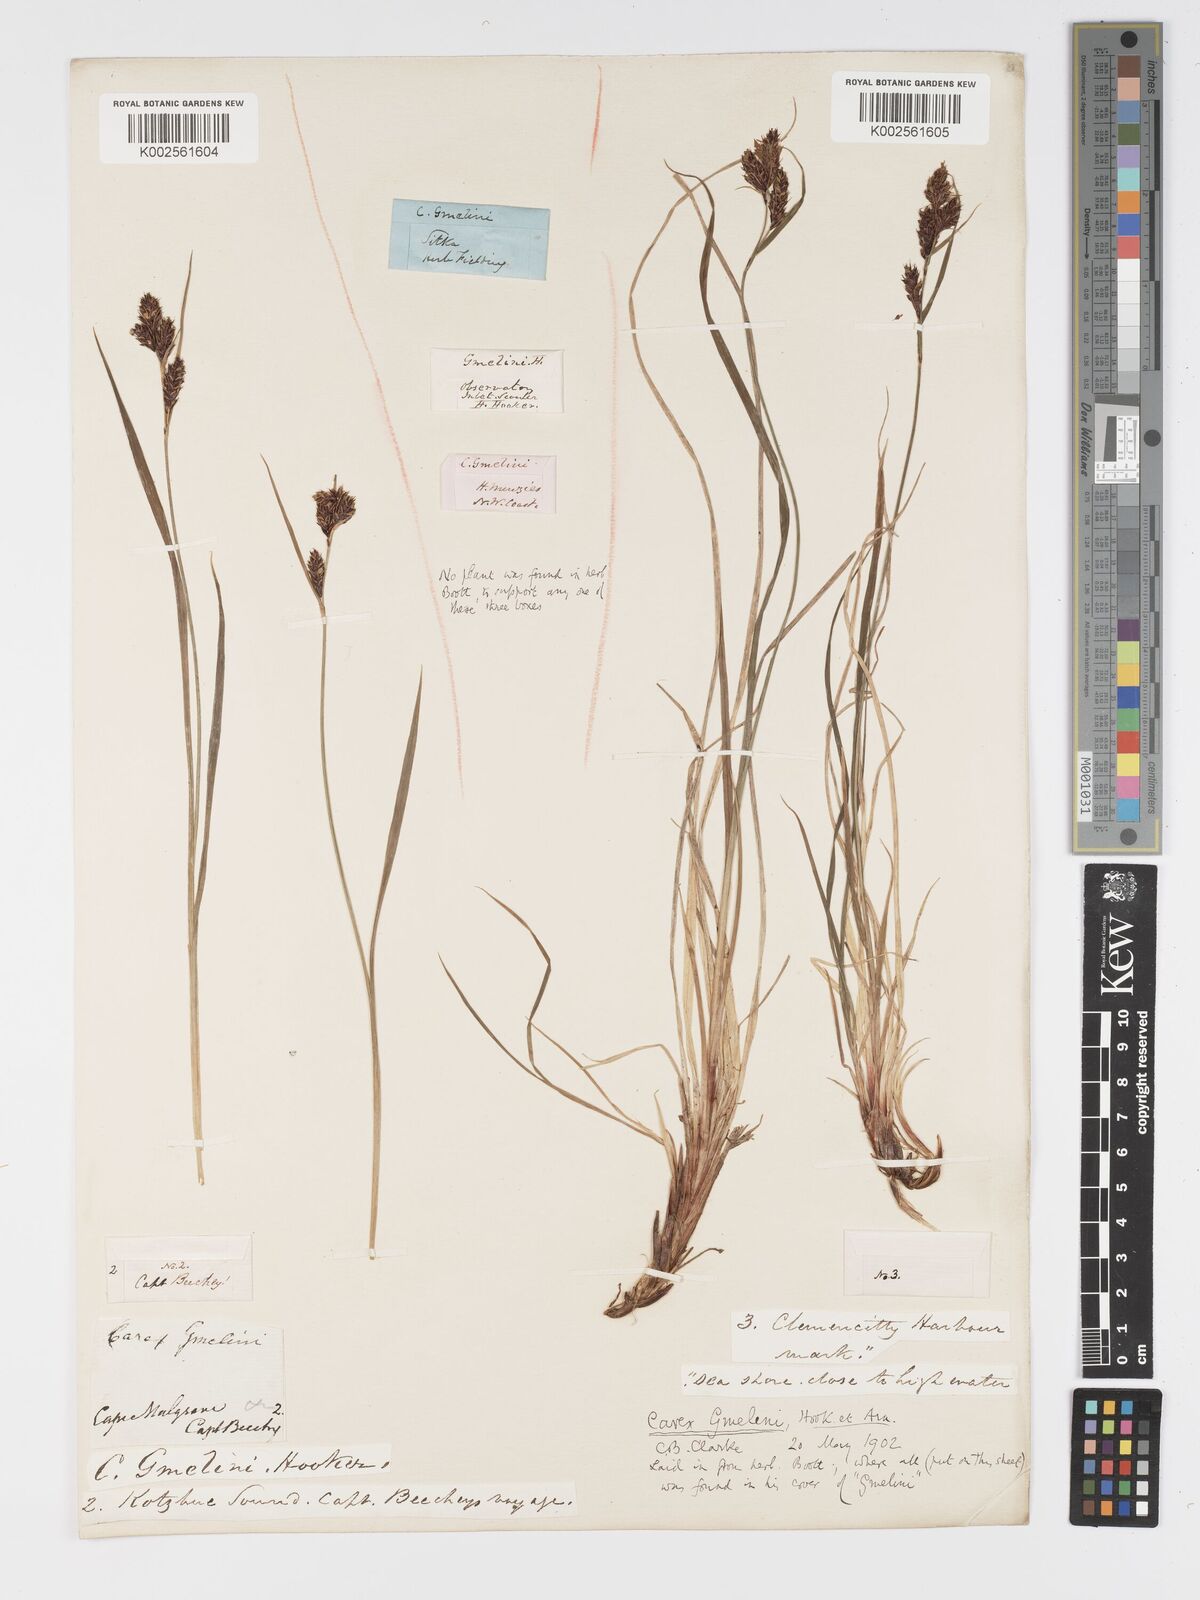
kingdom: Plantae
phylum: Tracheophyta
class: Liliopsida
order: Poales
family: Cyperaceae
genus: Carex
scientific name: Carex gmelinii
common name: Gmelin's sedge
